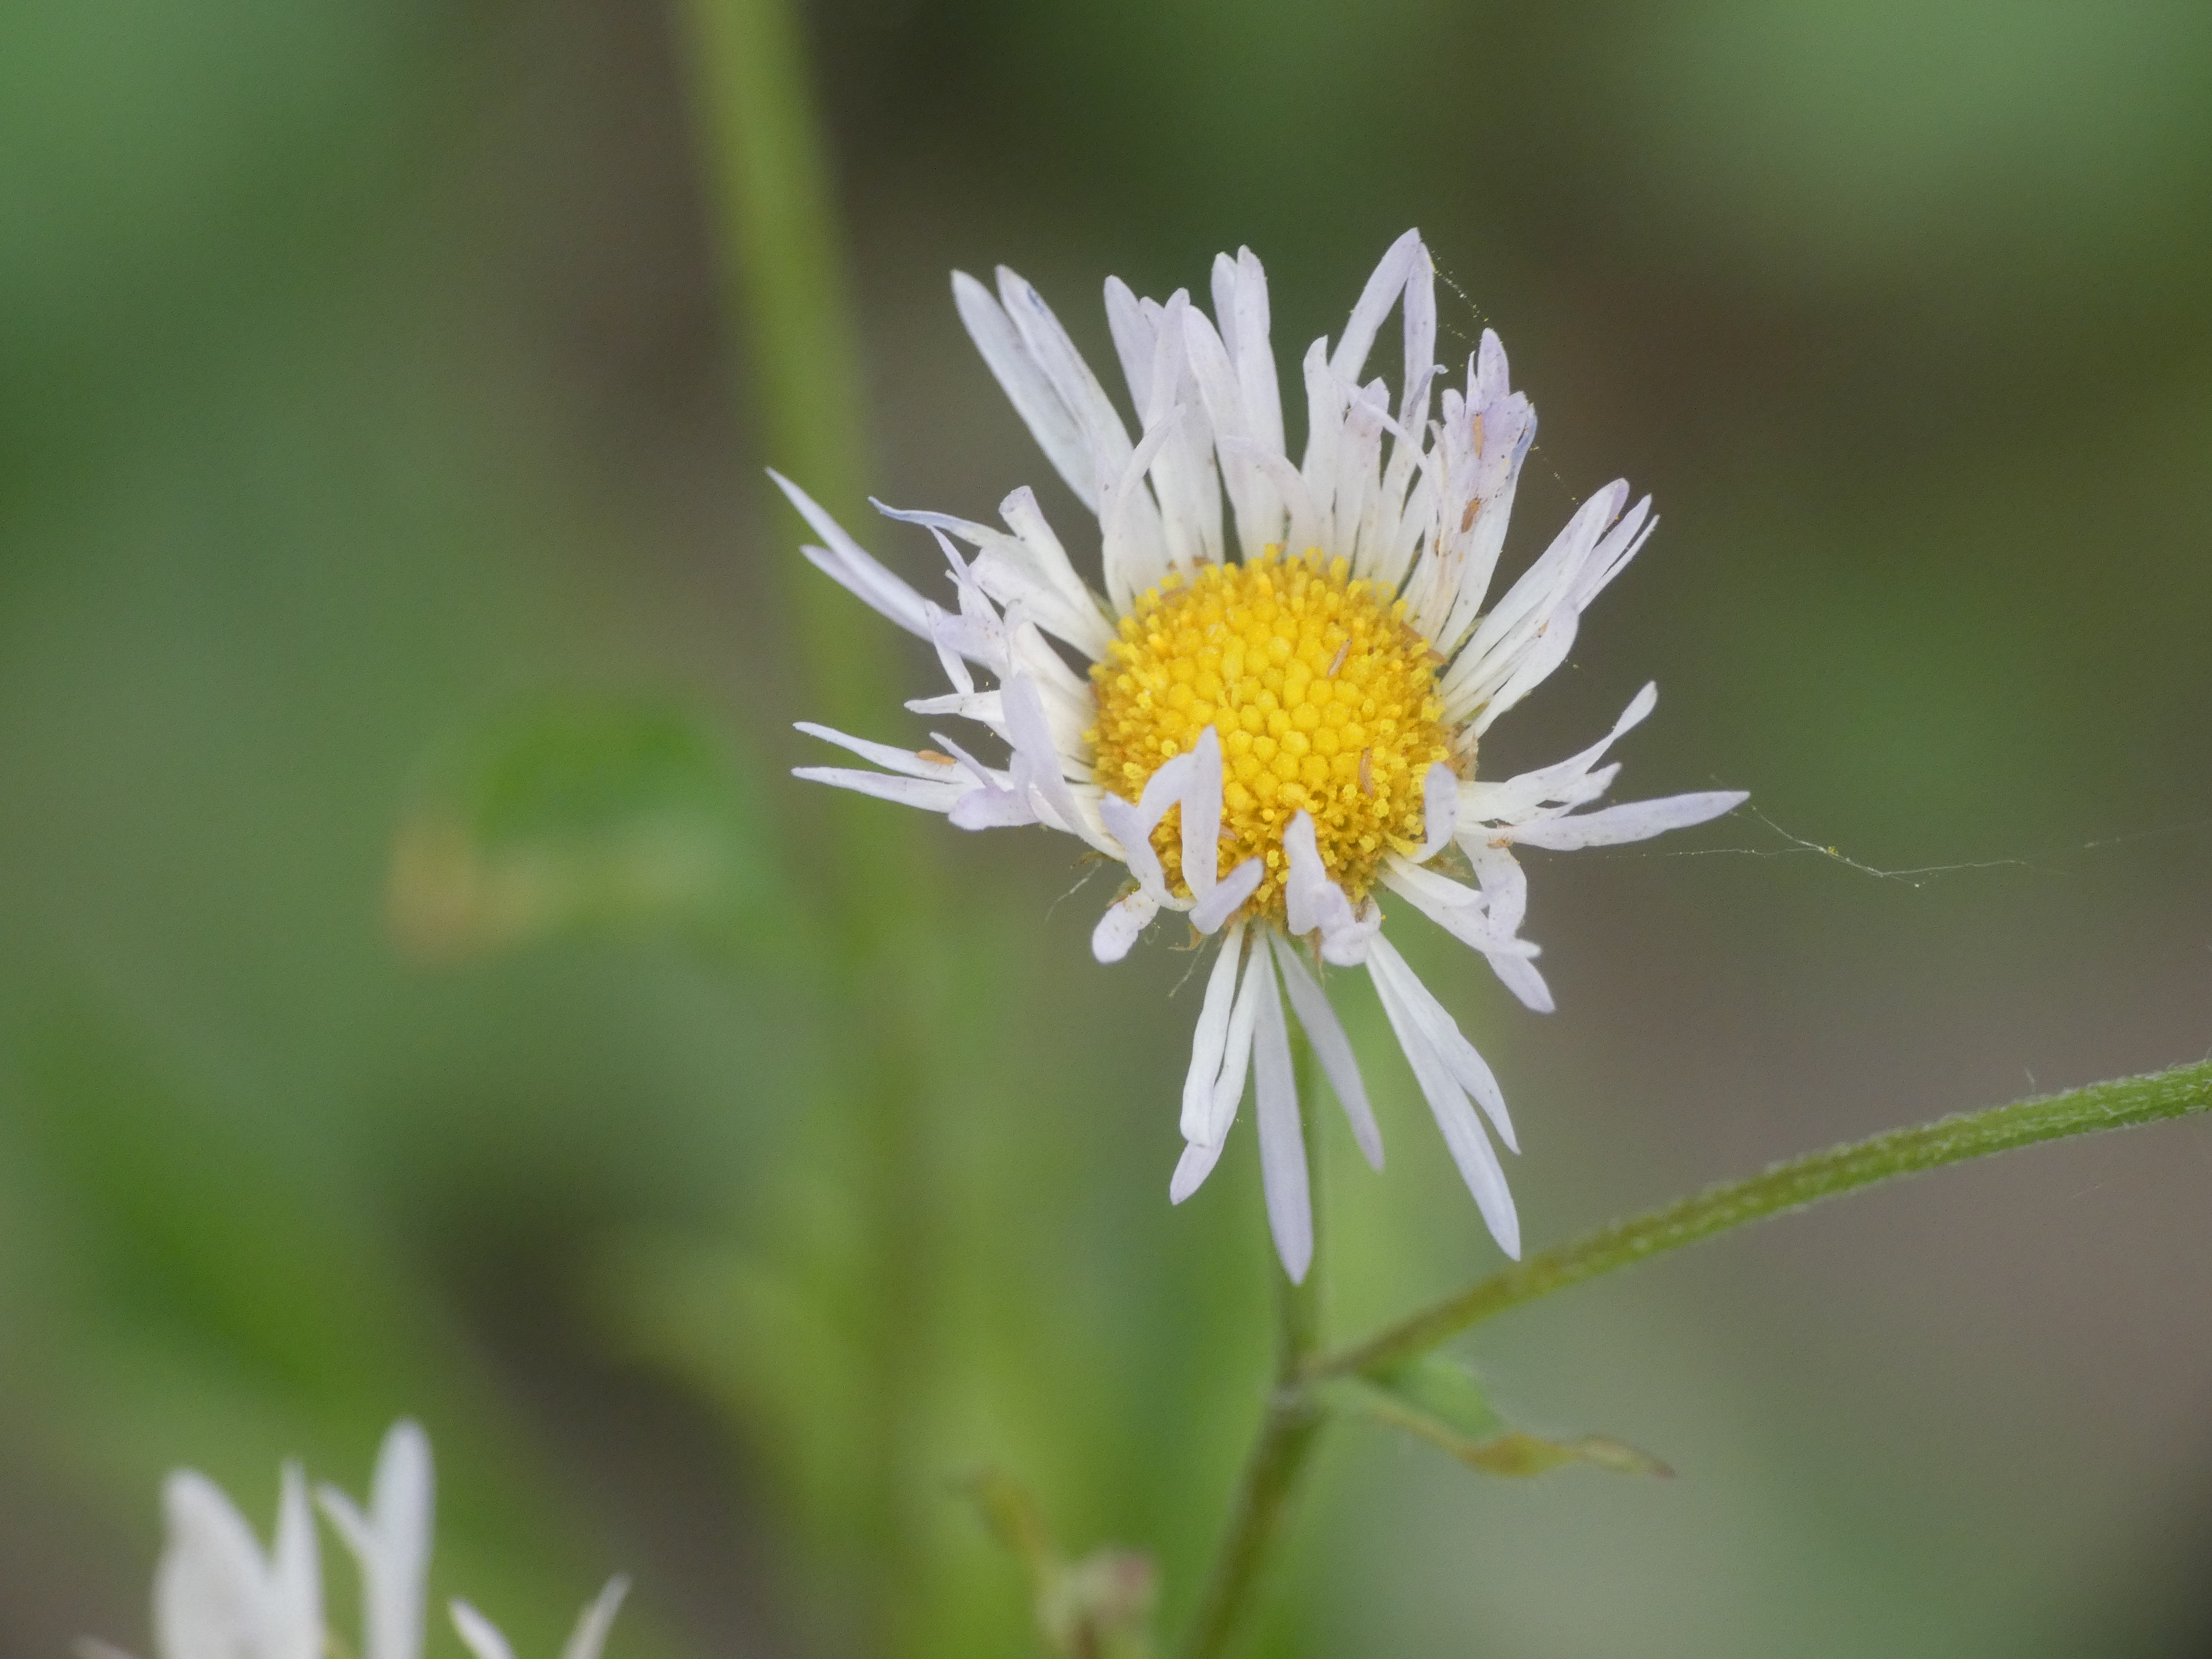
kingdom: Plantae
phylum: Tracheophyta
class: Magnoliopsida
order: Asterales
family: Asteraceae
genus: Erigeron
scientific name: Erigeron annuus
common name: Smalstråle
